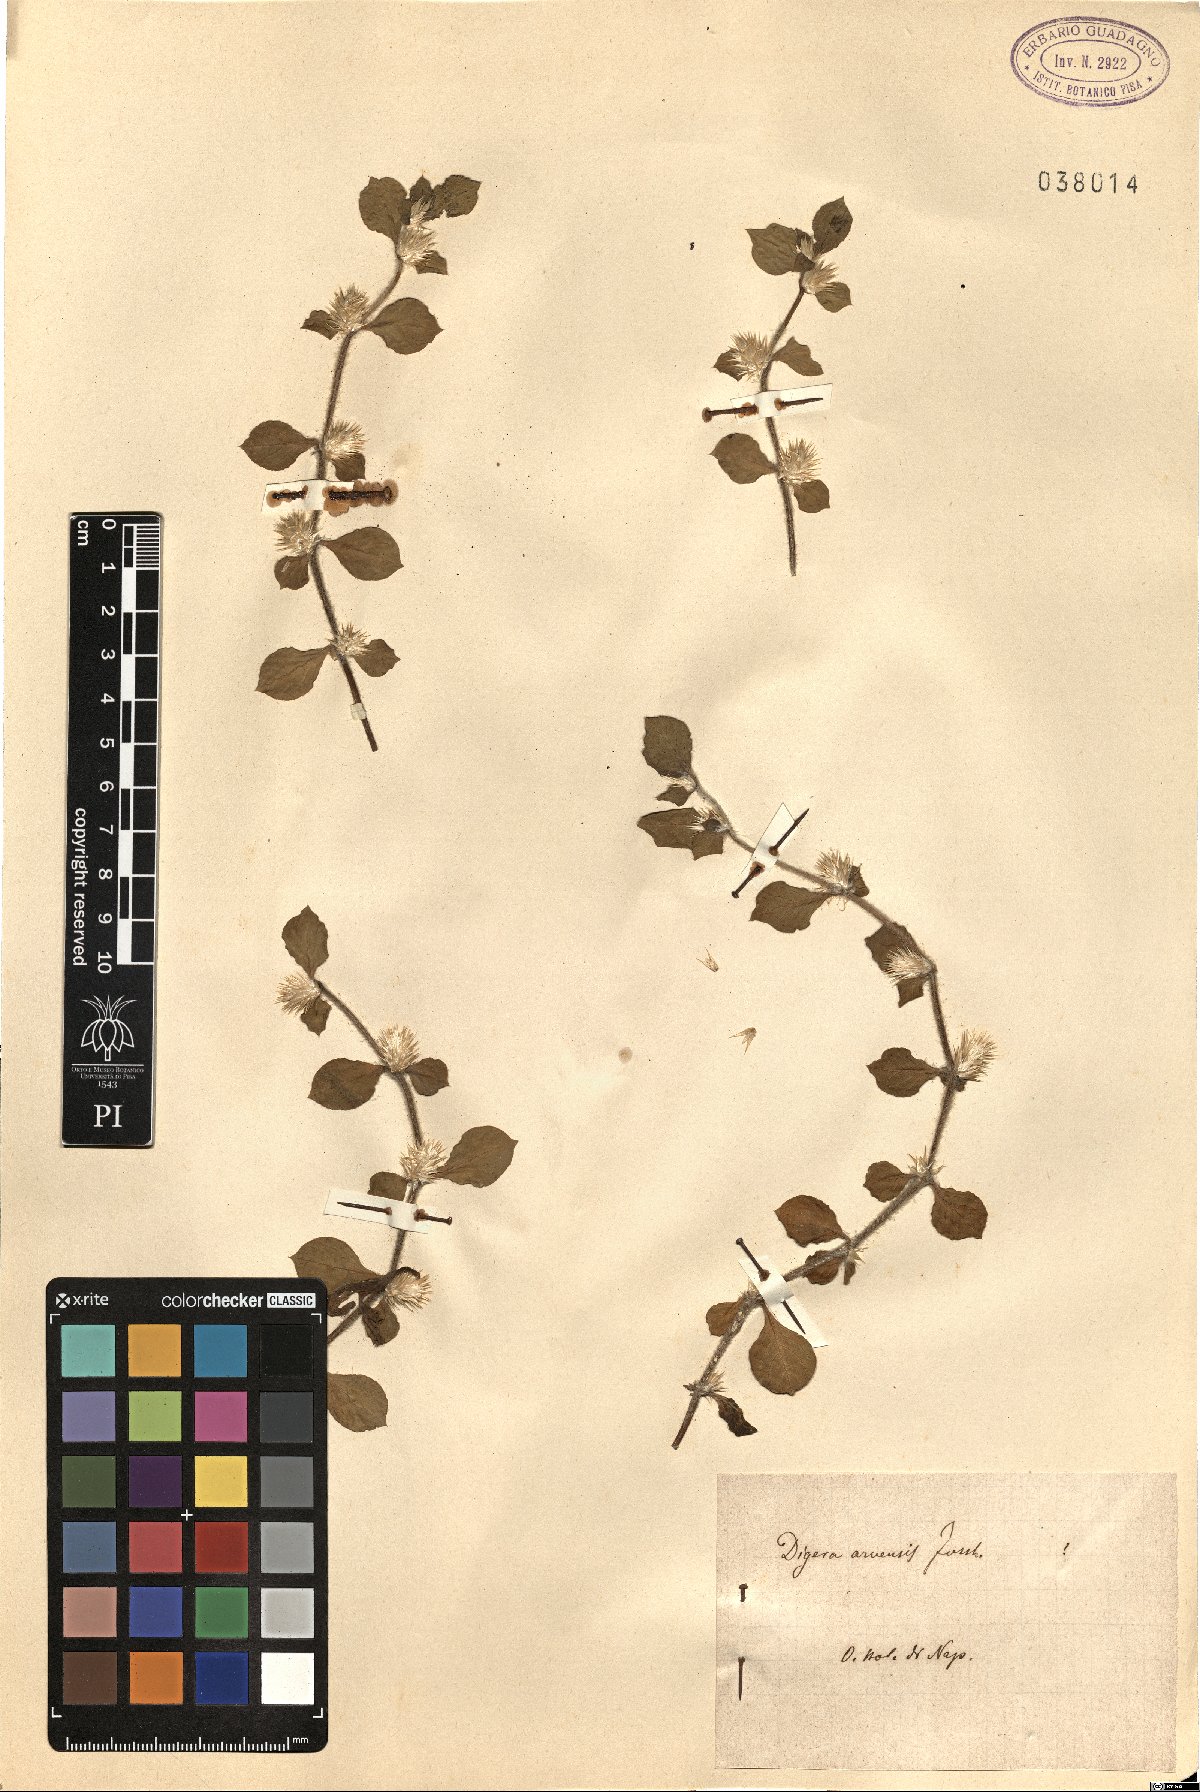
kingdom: Plantae
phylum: Tracheophyta
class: Magnoliopsida
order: Caryophyllales
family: Amaranthaceae
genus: Digera
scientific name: Digera muricata
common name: False amaranth
